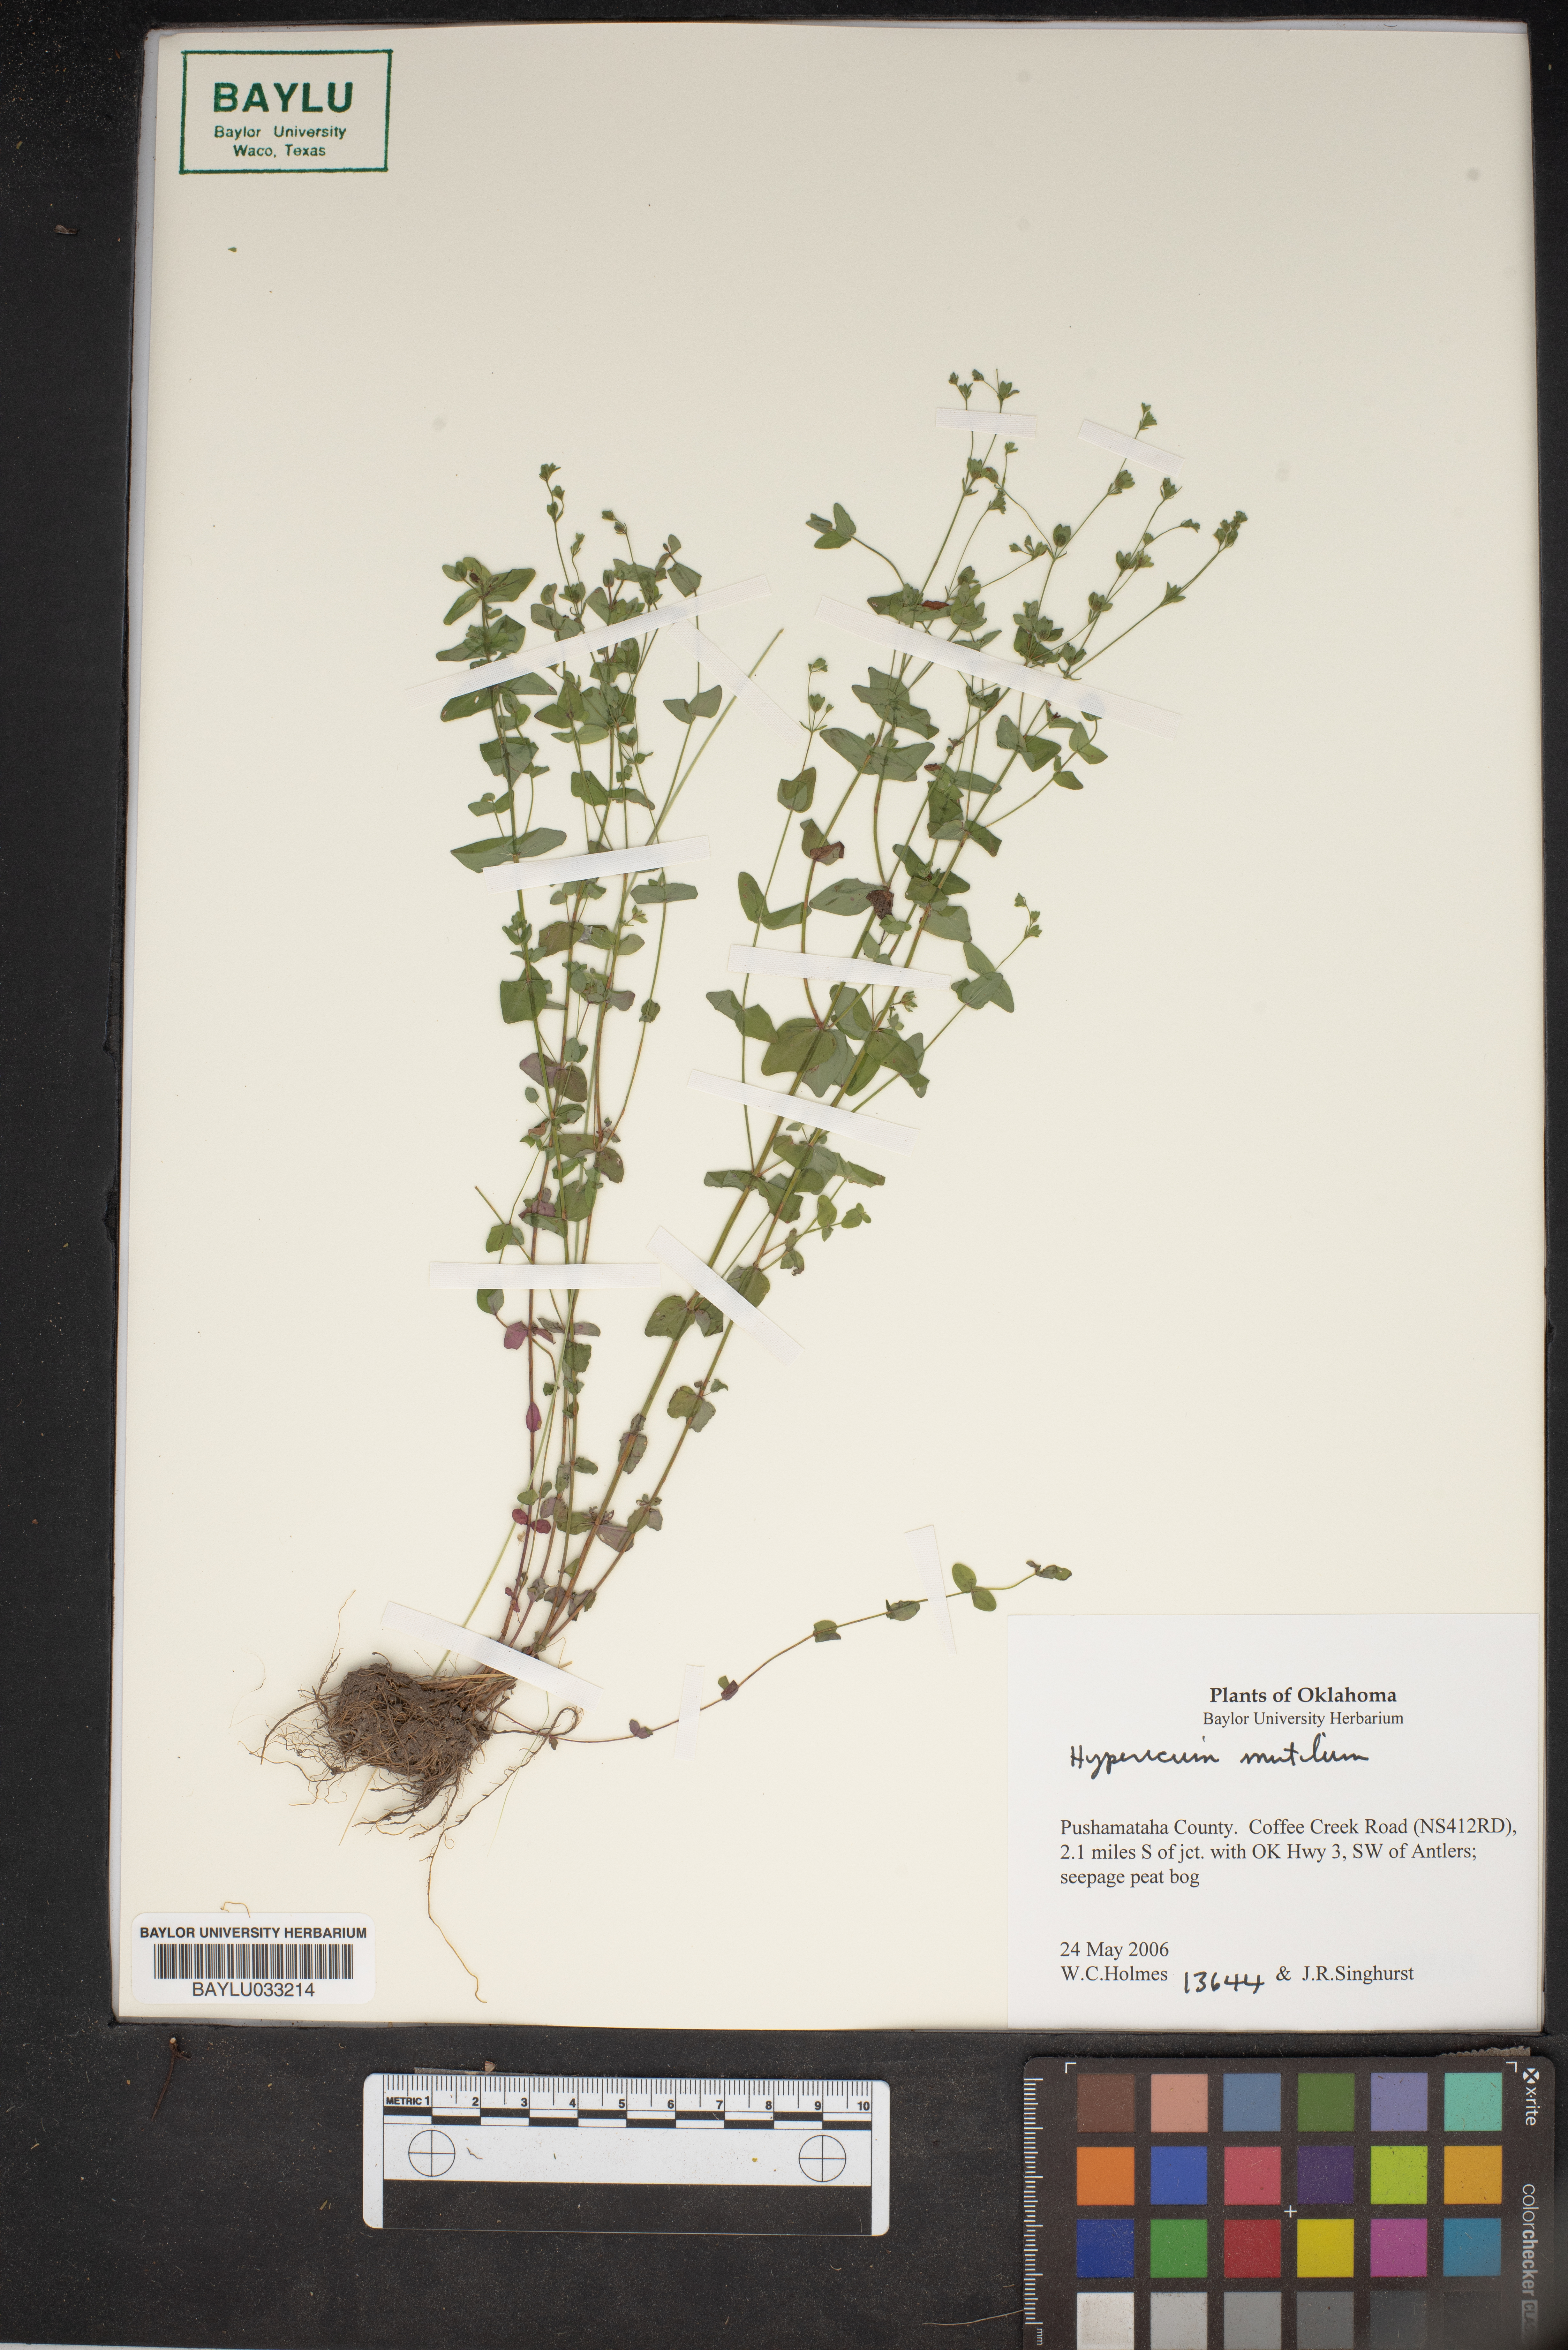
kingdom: Plantae
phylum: Tracheophyta
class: Magnoliopsida
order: Malpighiales
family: Hypericaceae
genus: Hypericum
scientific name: Hypericum mutilum
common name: Dwarf st. john's-wort
